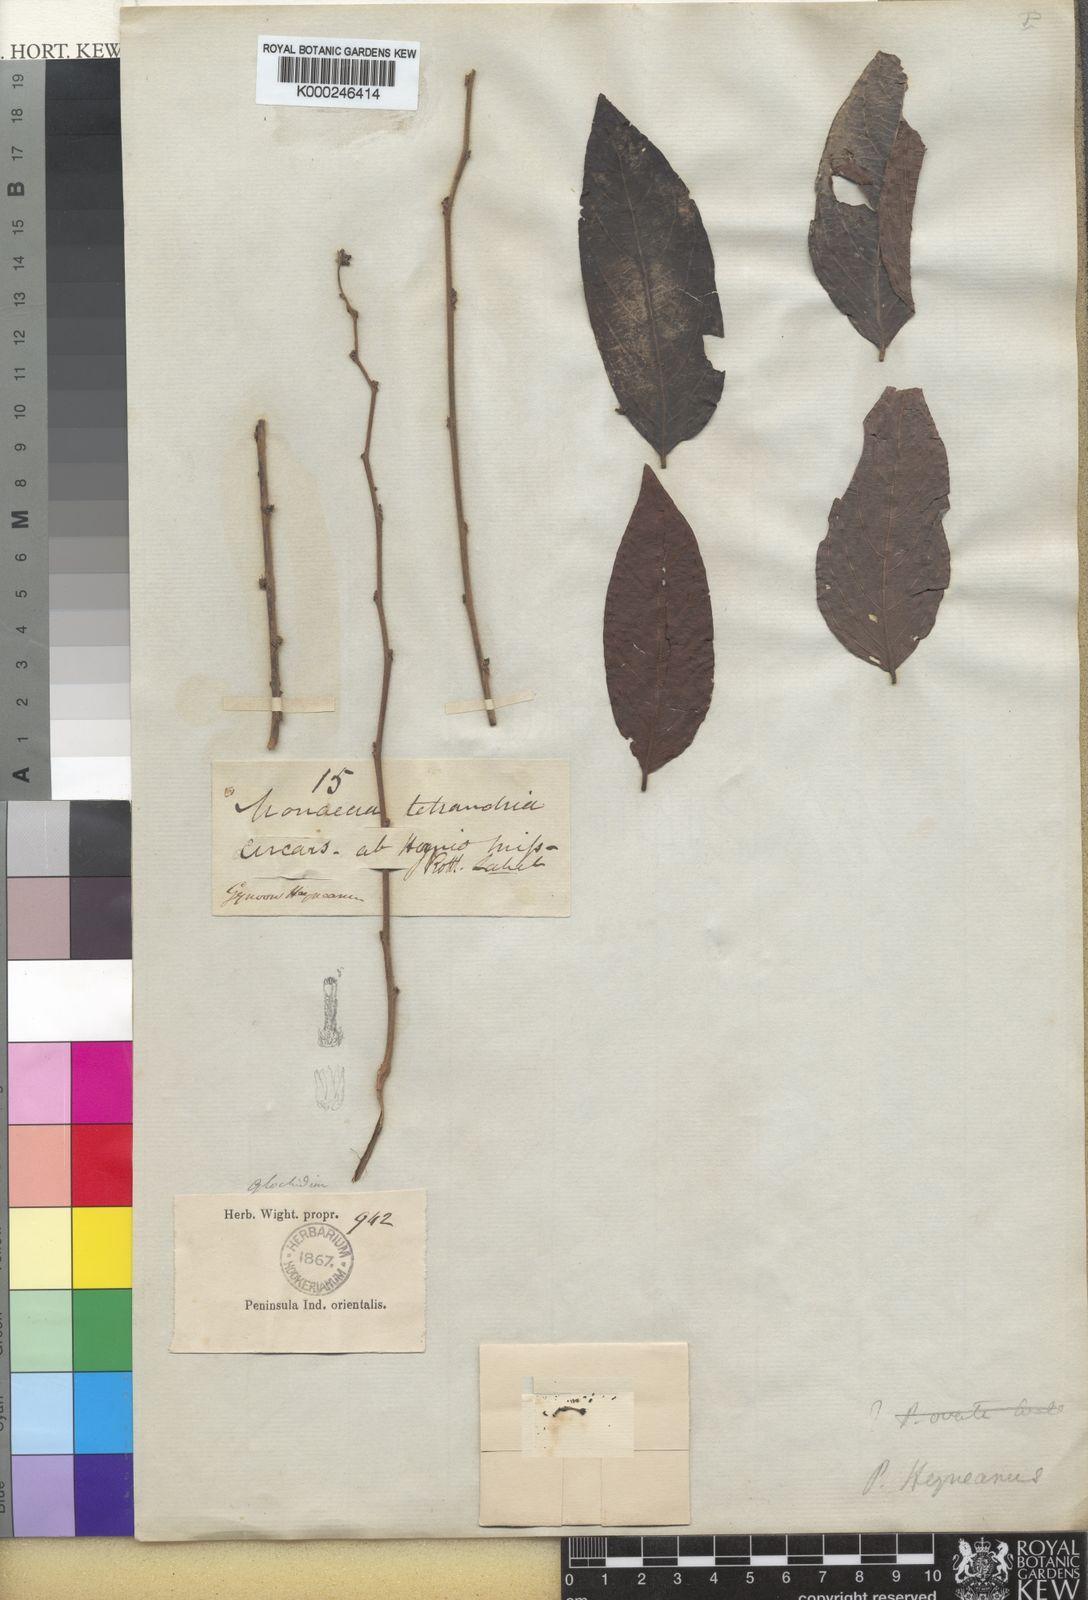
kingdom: Plantae
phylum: Tracheophyta
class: Magnoliopsida
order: Malpighiales
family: Phyllanthaceae
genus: Glochidion
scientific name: Glochidion heyneanum
